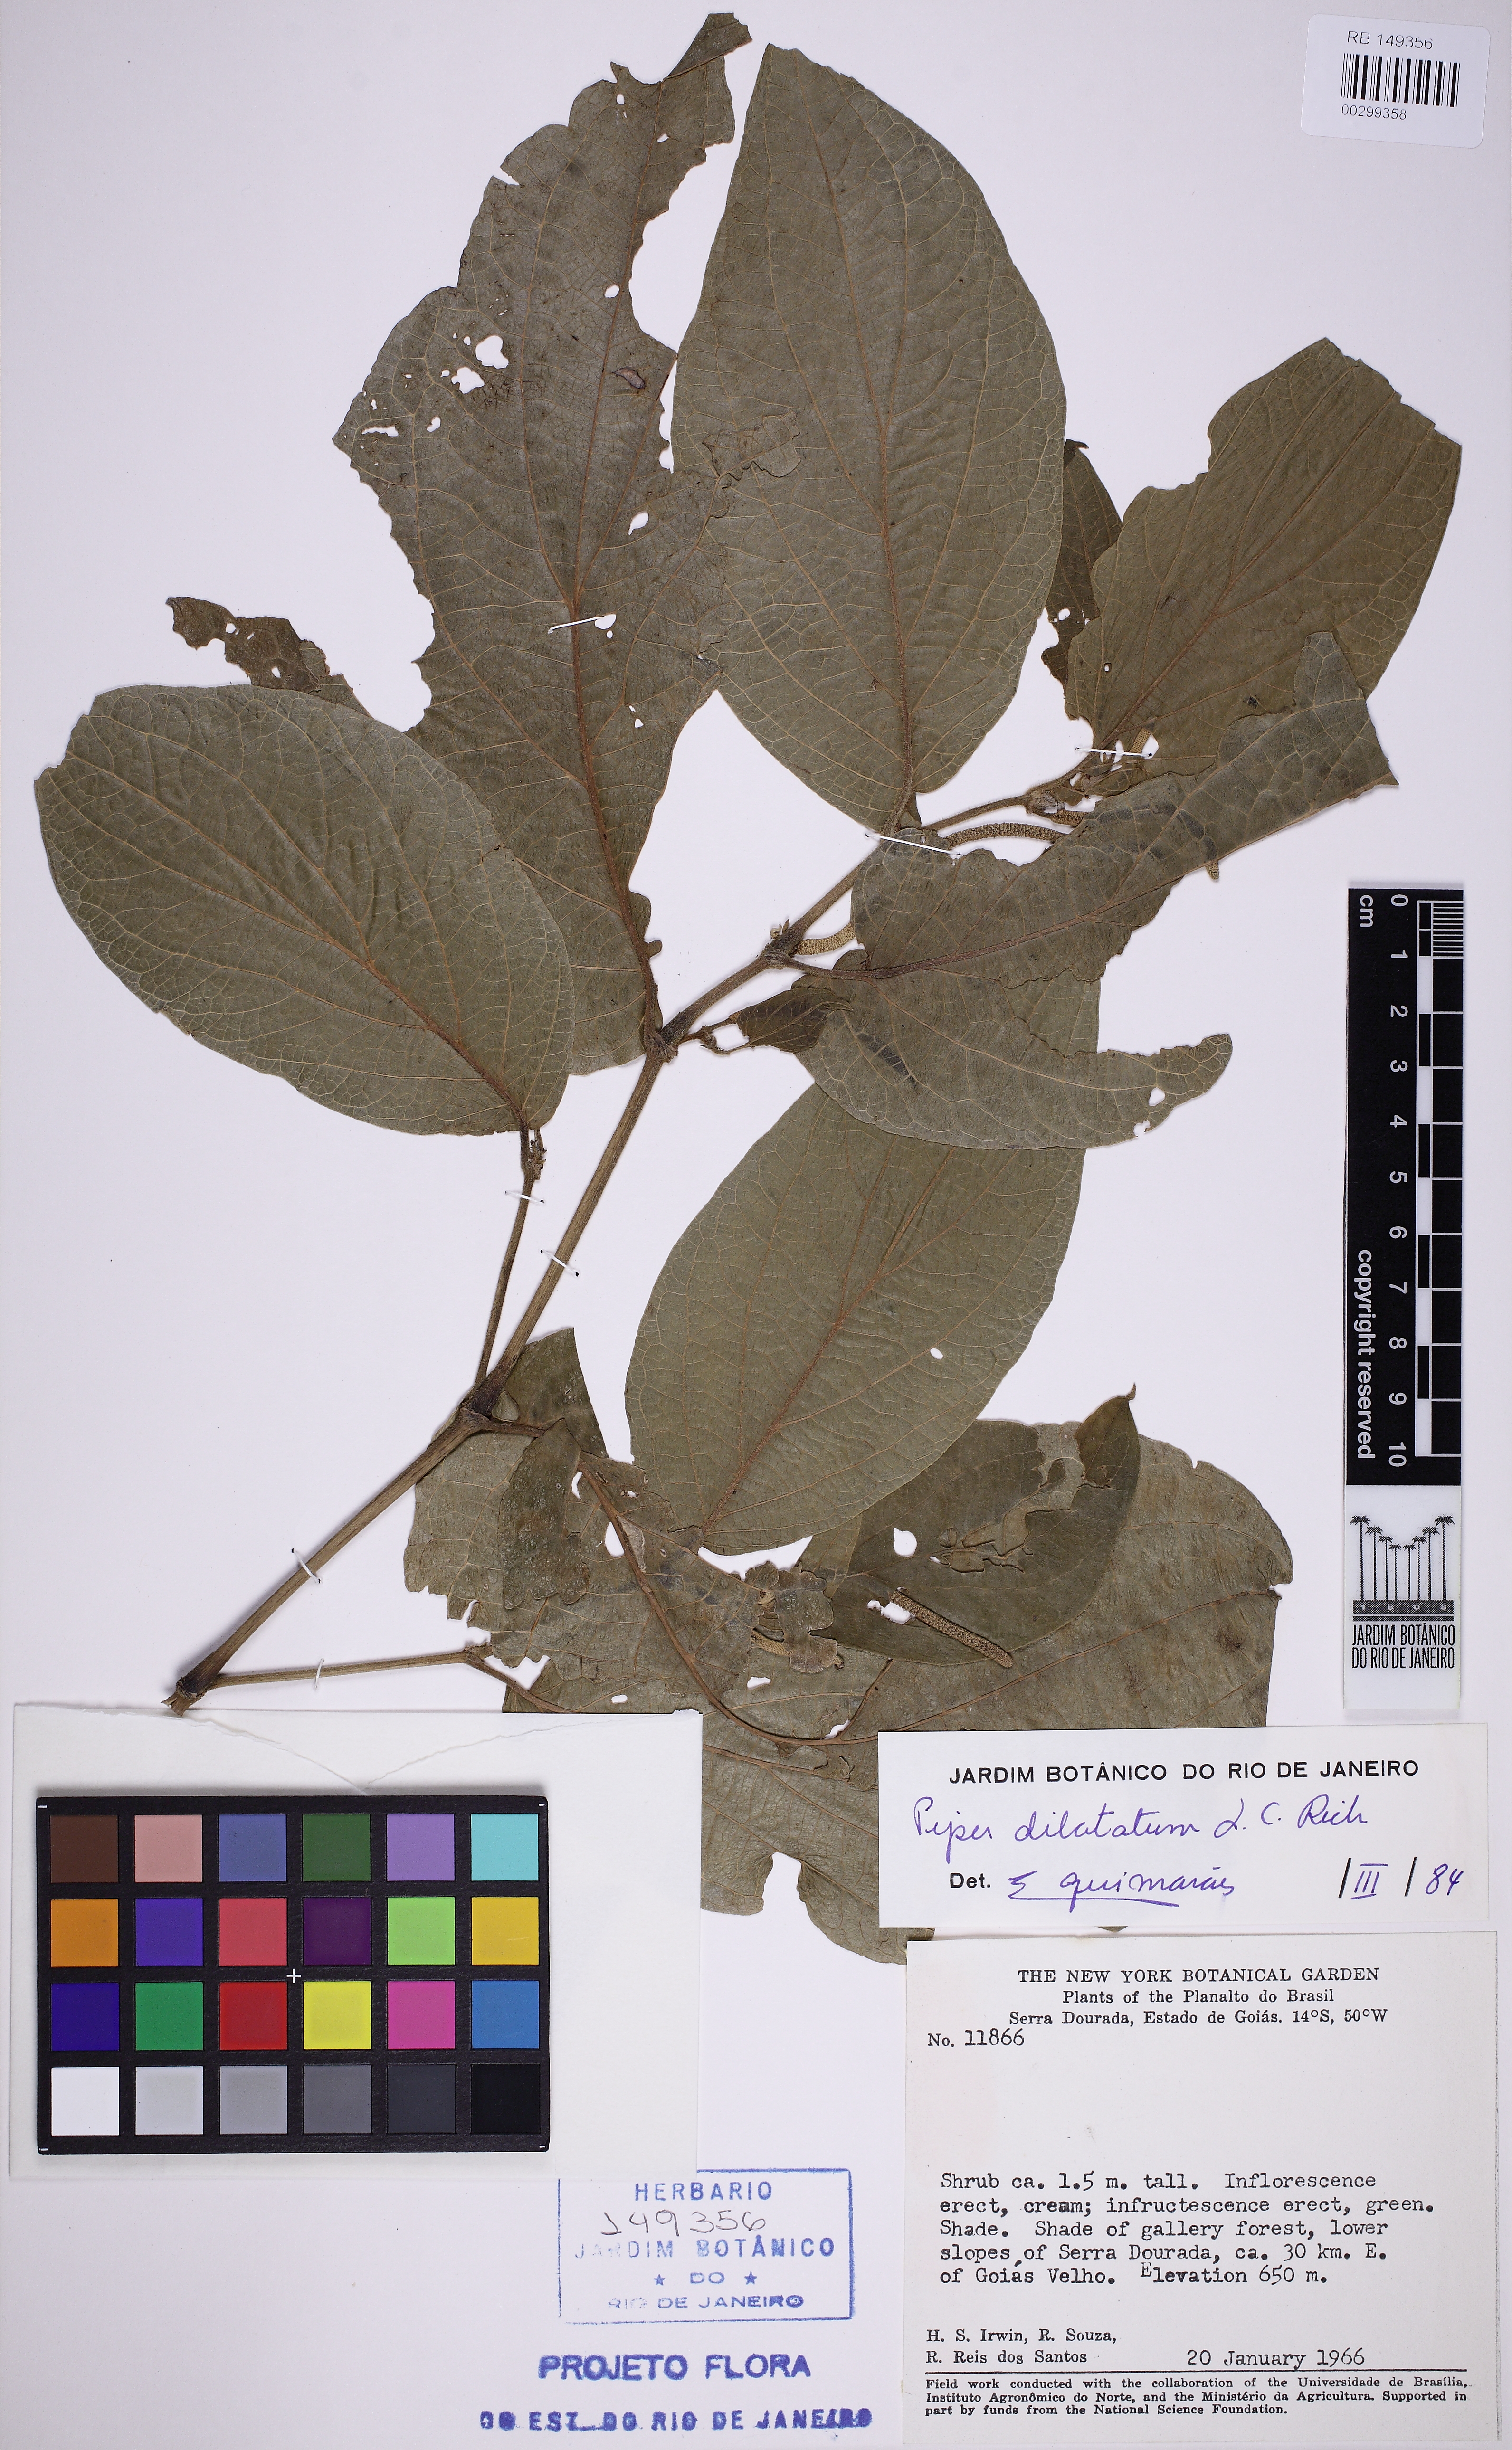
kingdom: Plantae
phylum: Tracheophyta
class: Magnoliopsida
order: Piperales
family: Piperaceae
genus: Piper
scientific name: Piper dilatatum
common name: Higuillo
